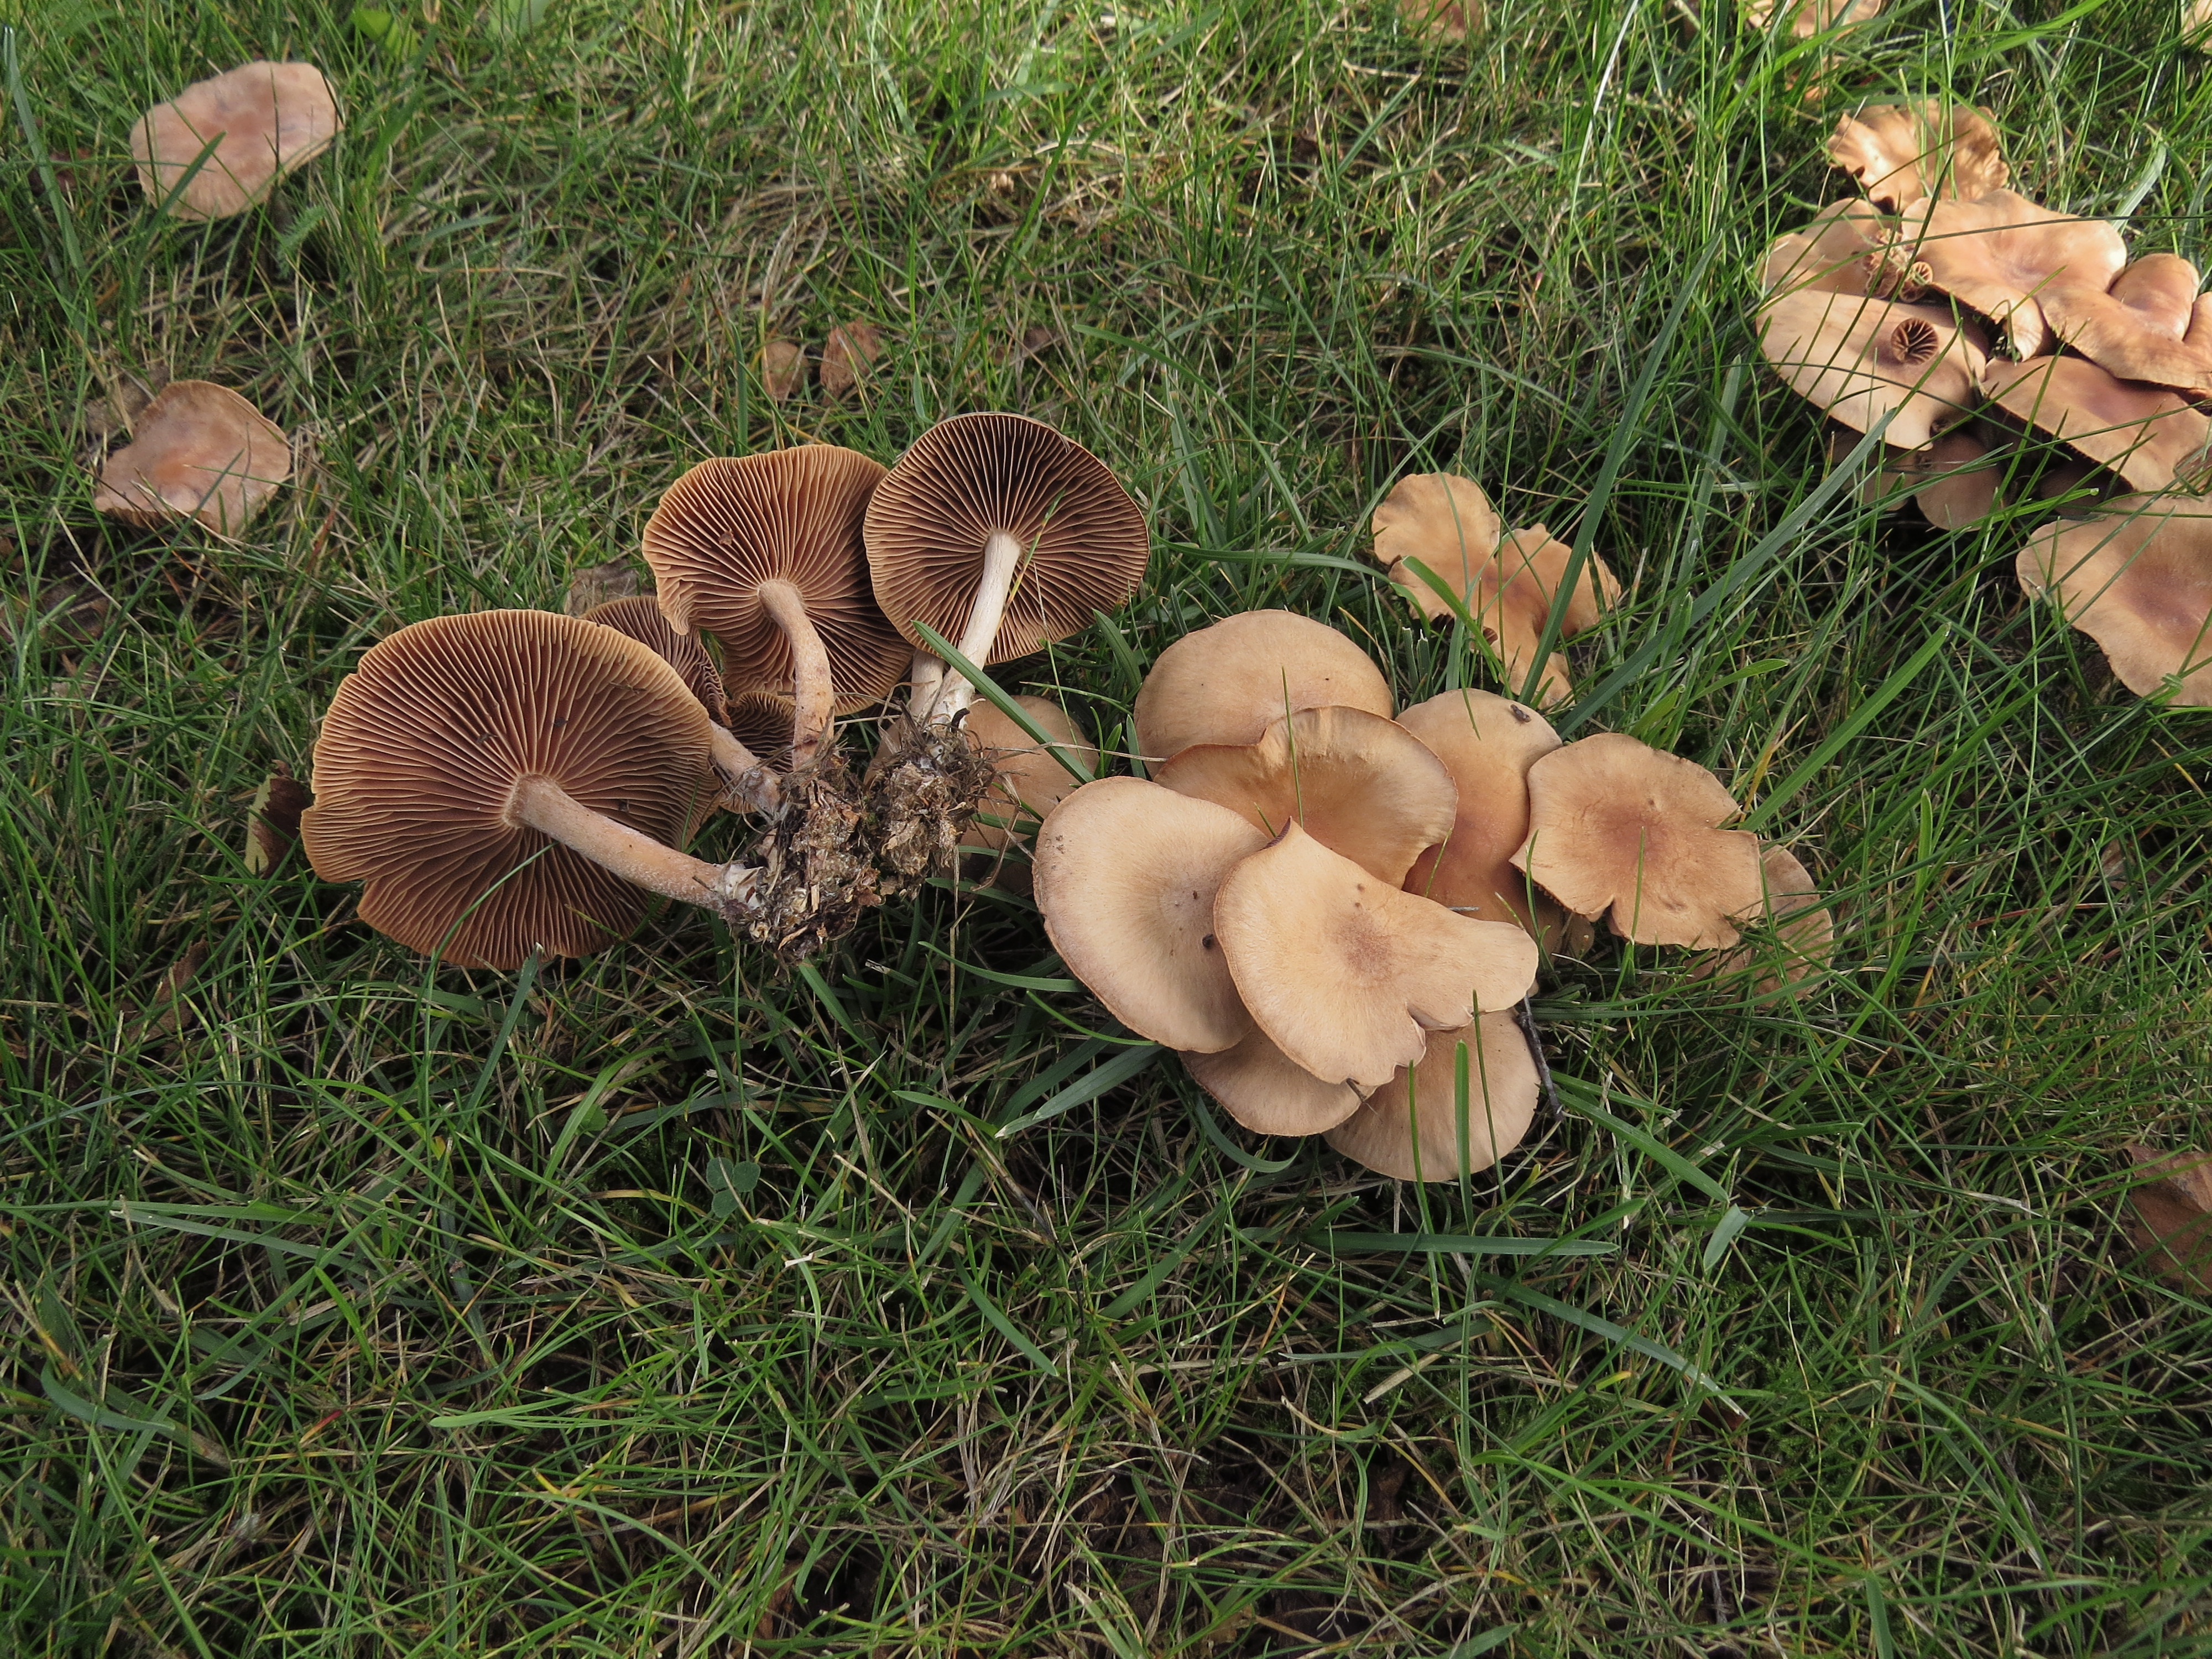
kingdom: Fungi
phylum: Basidiomycota
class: Agaricomycetes
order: Agaricales
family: Omphalotaceae
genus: Collybiopsis
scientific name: Collybiopsis peronata
